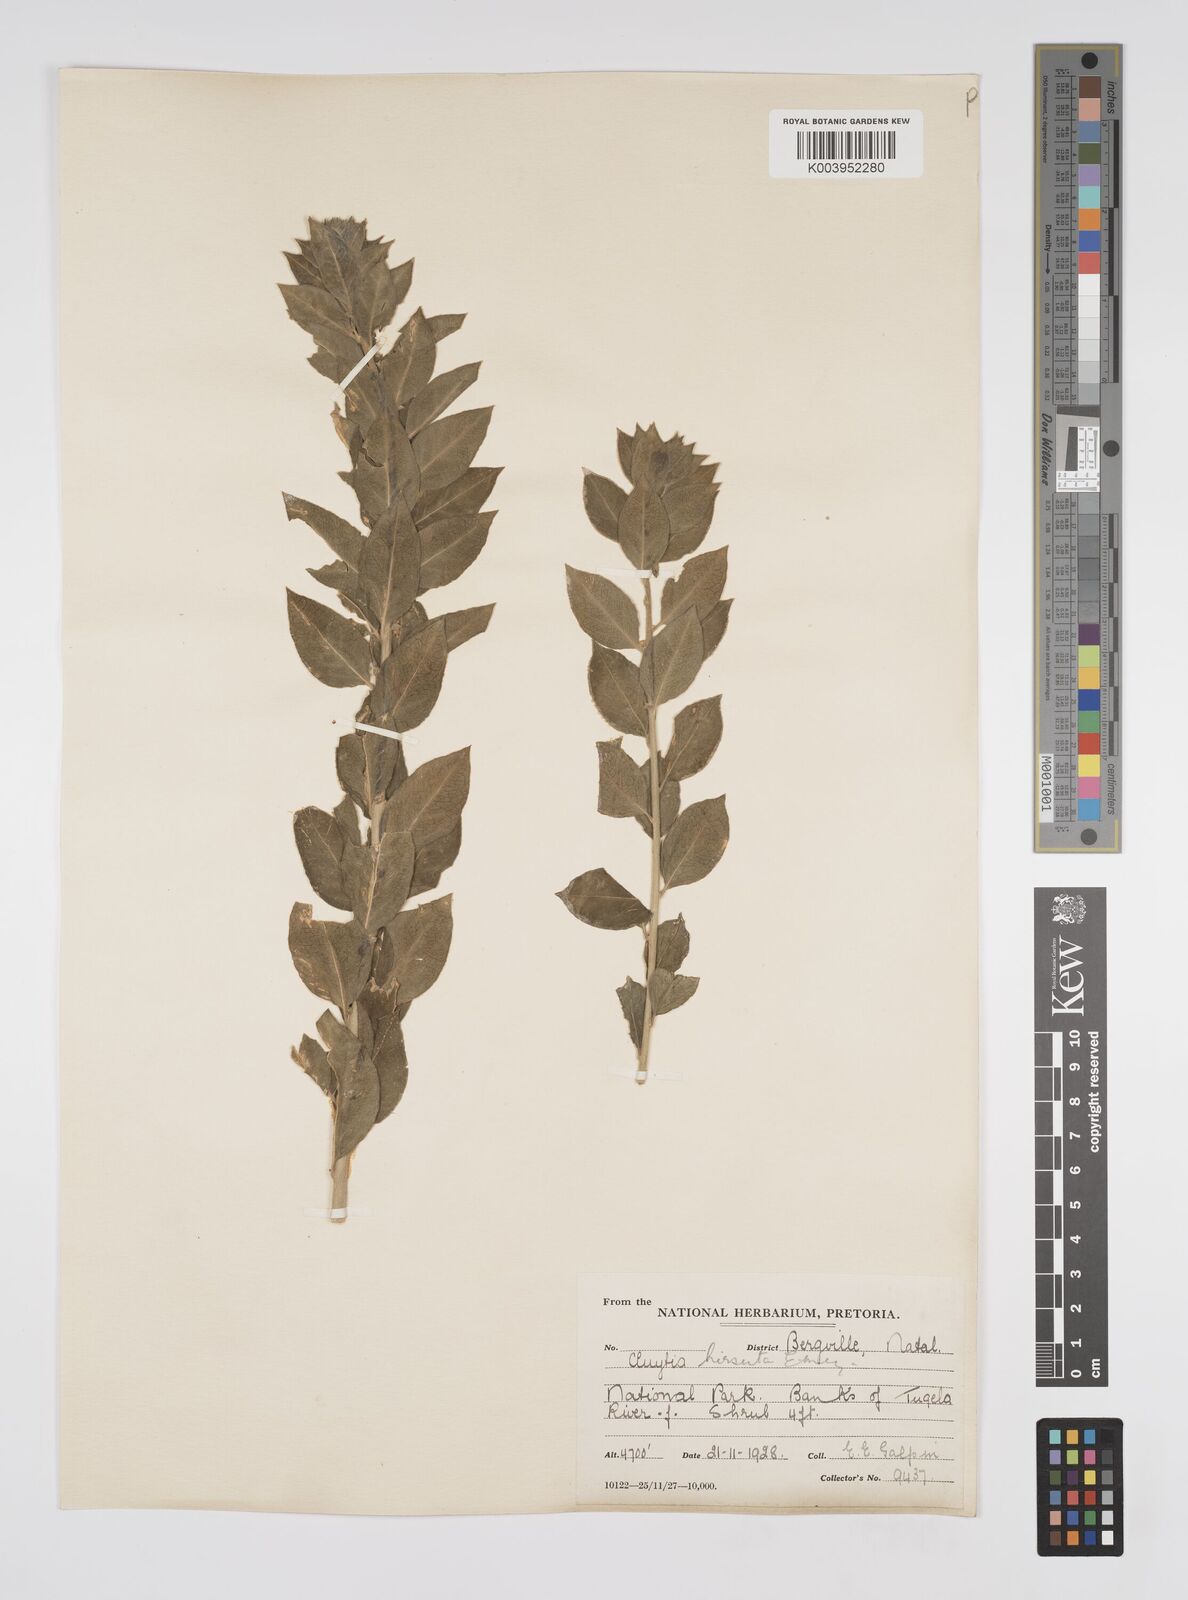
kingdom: Plantae
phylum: Tracheophyta
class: Magnoliopsida
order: Malpighiales
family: Peraceae
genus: Clutia
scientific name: Clutia affinis
